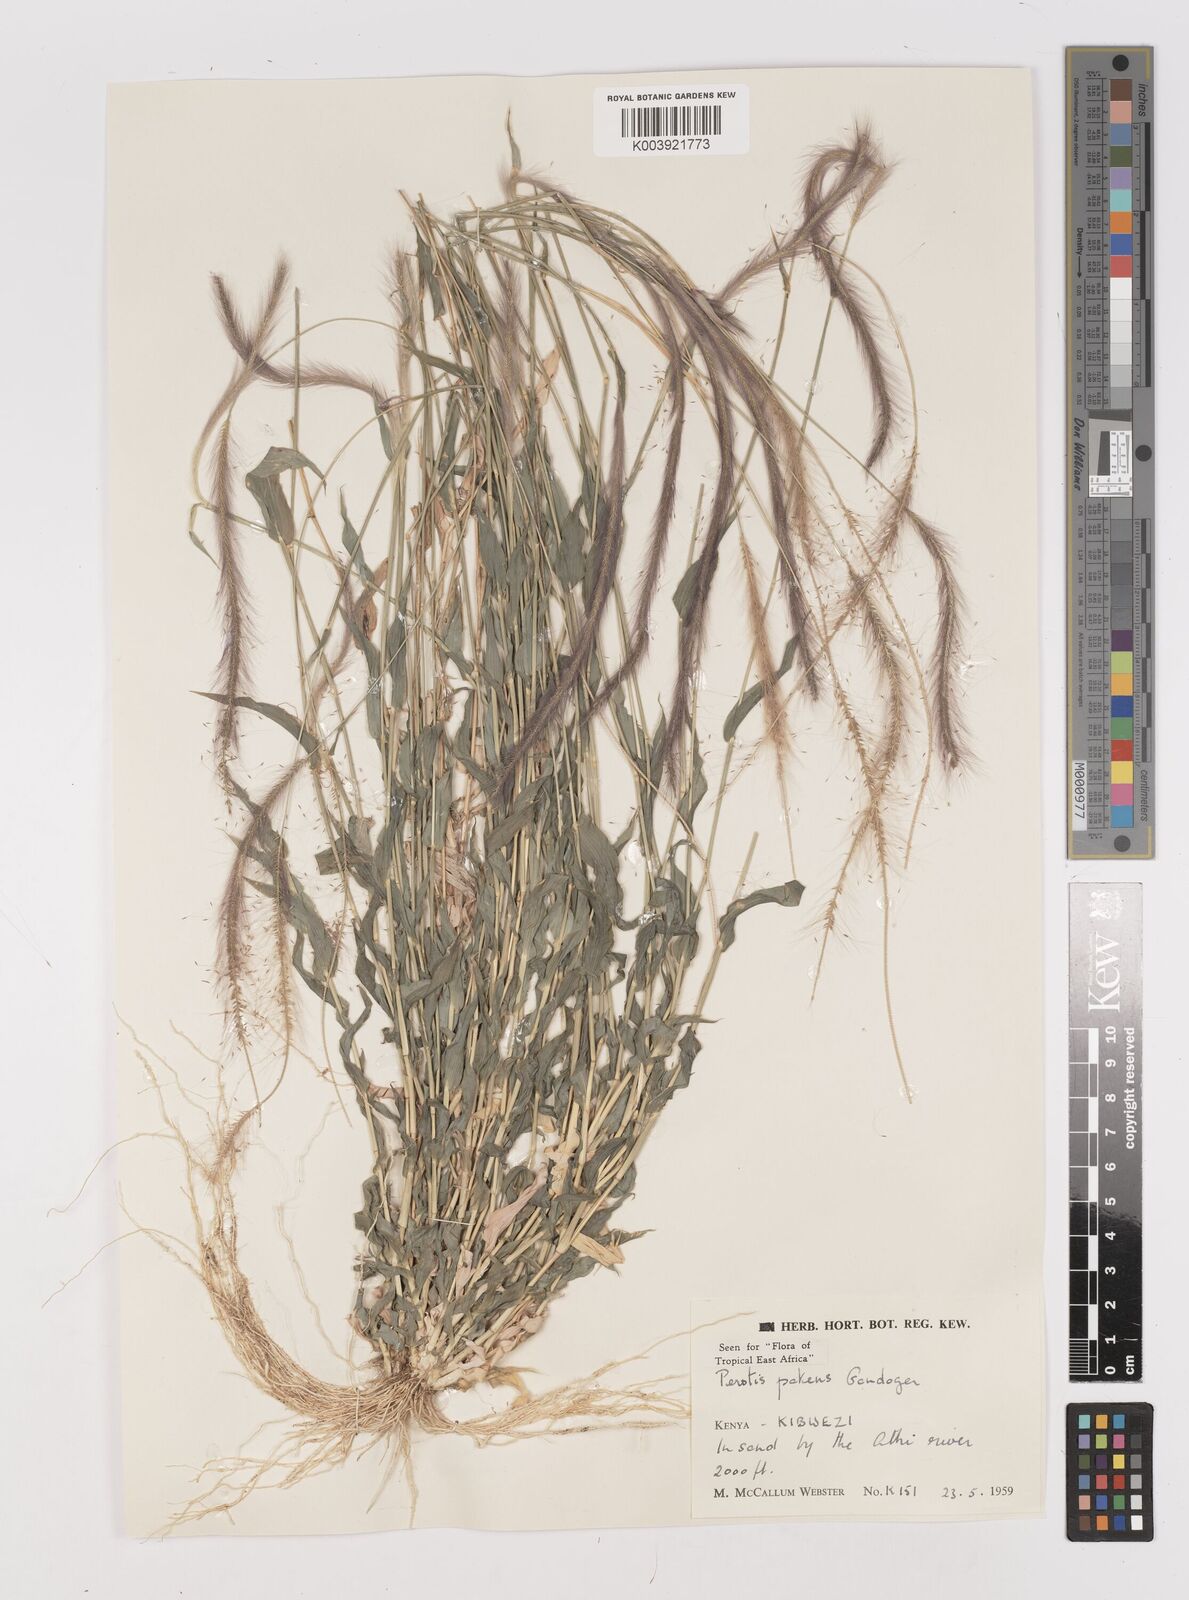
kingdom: Plantae
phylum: Tracheophyta
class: Liliopsida
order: Poales
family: Poaceae
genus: Perotis
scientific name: Perotis patens
